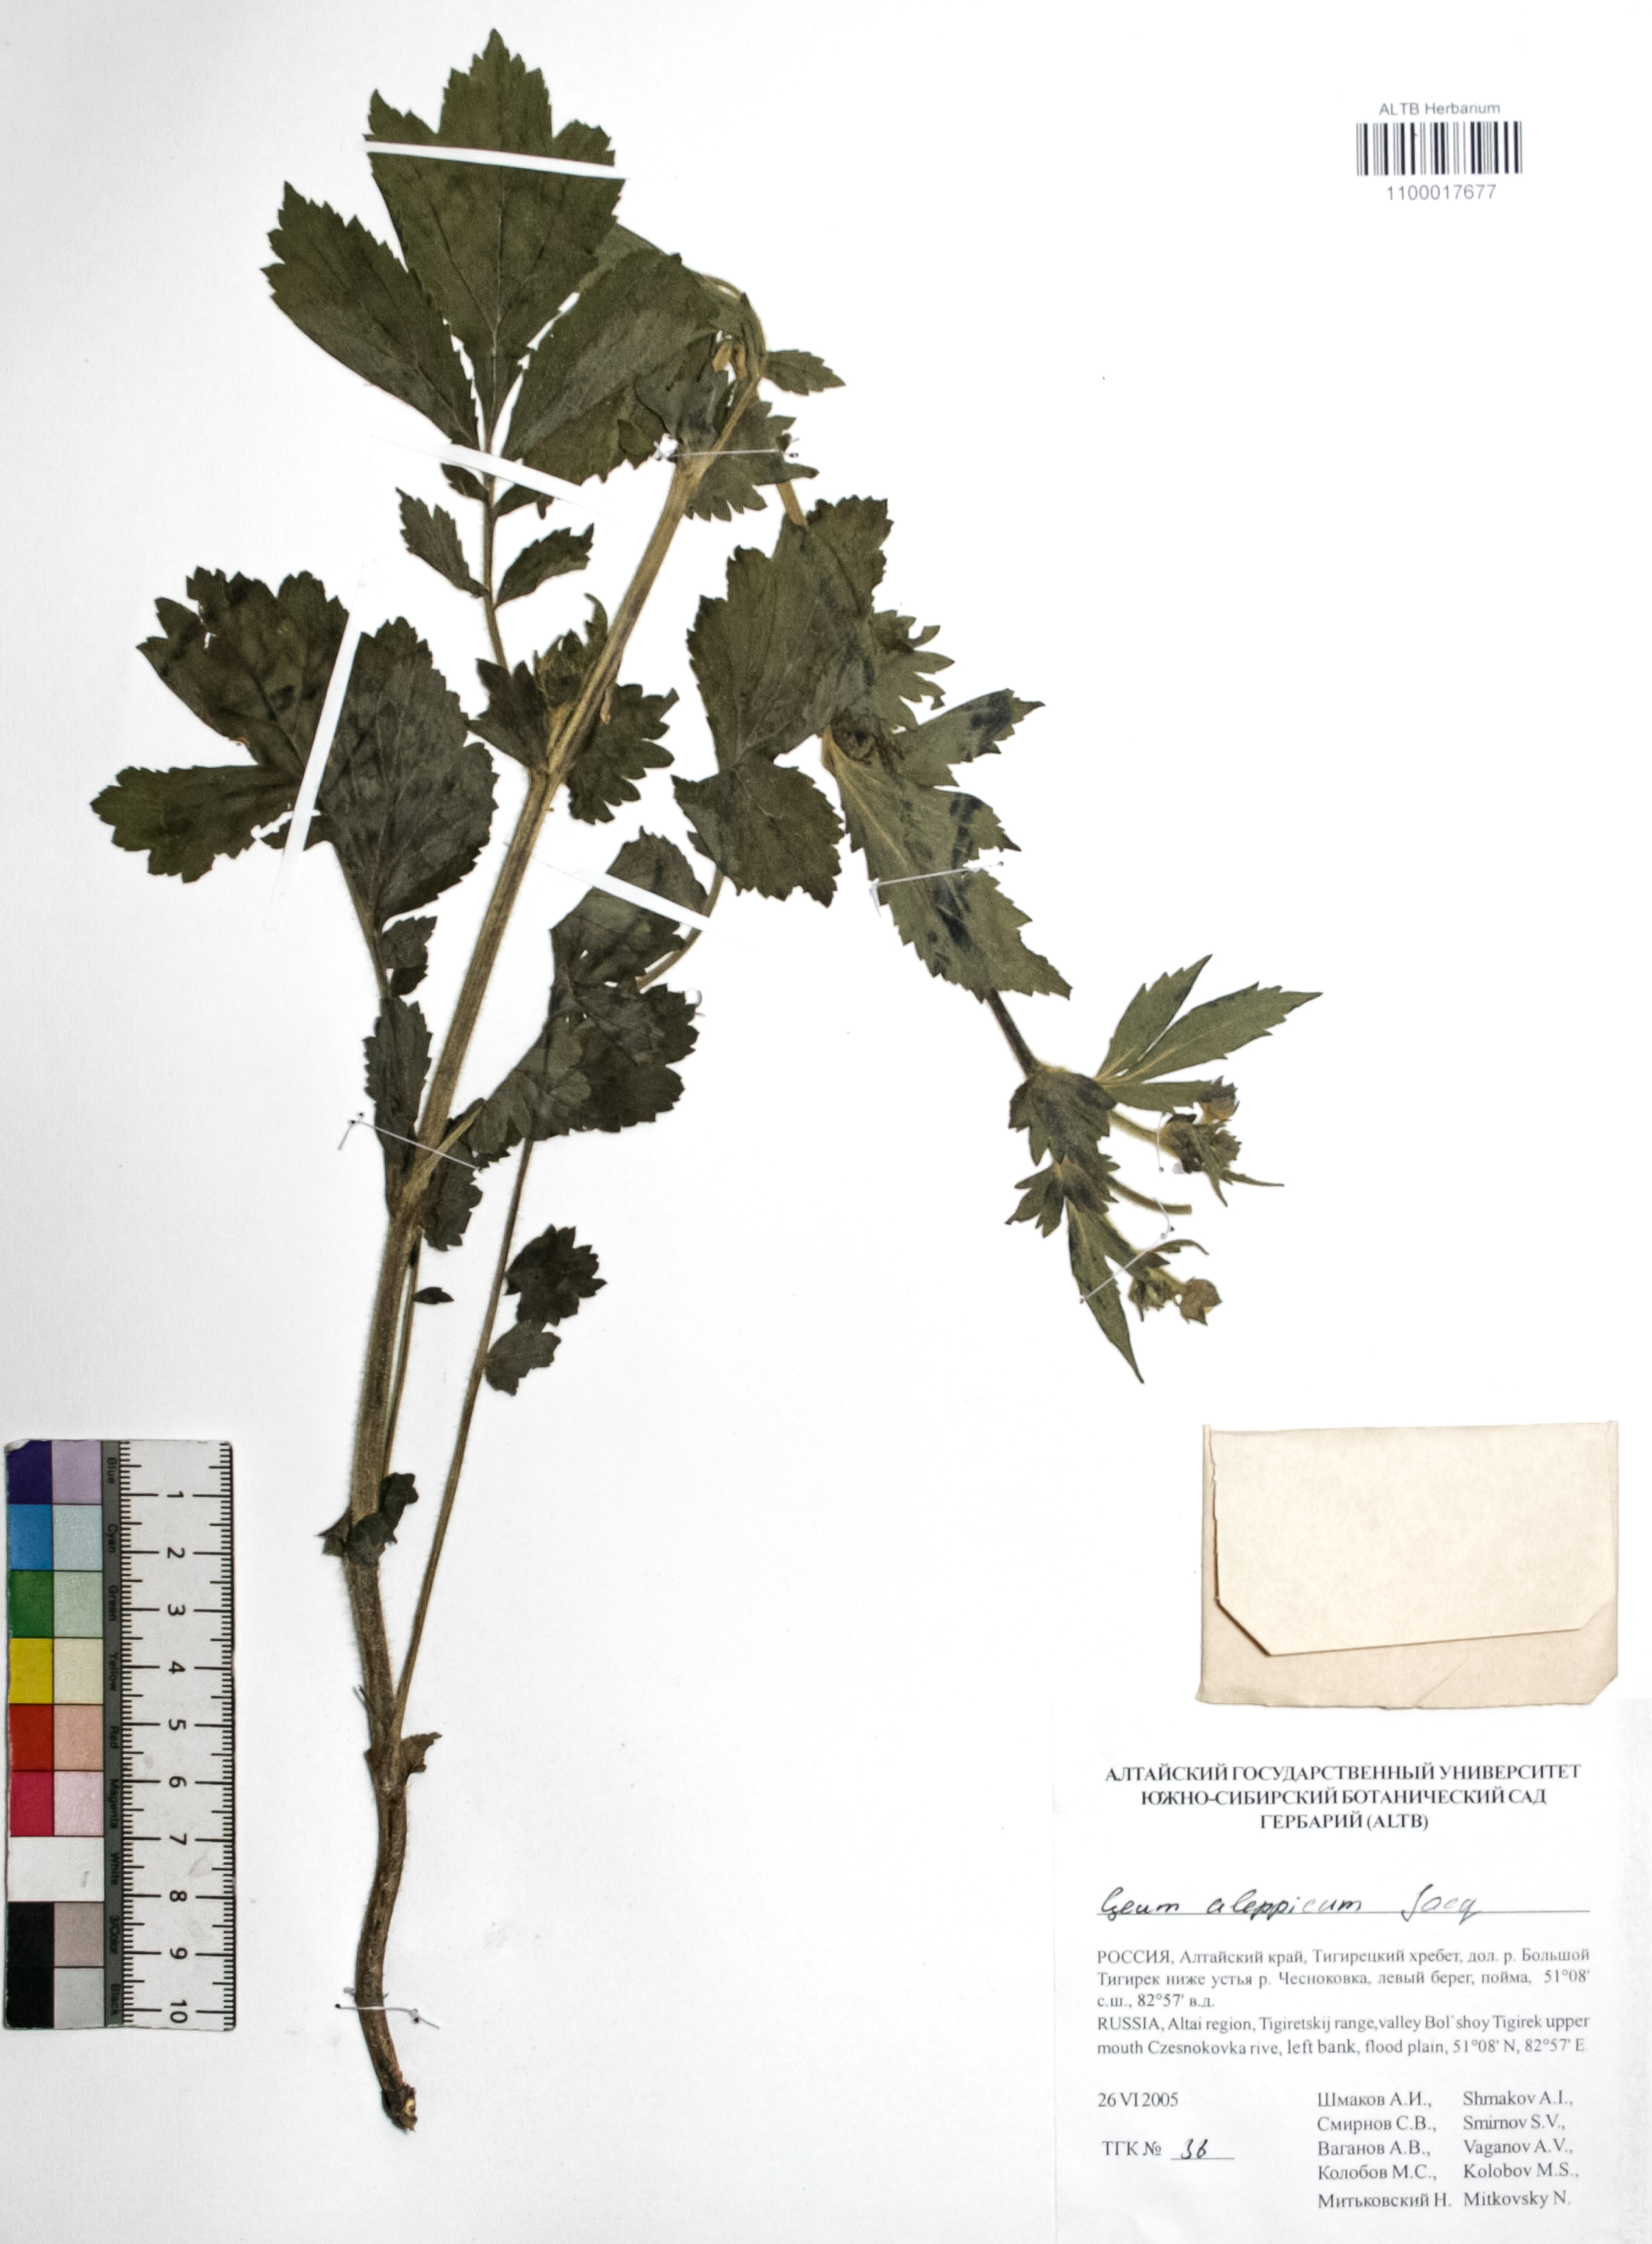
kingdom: Plantae
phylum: Tracheophyta
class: Magnoliopsida
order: Rosales
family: Rosaceae
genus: Geum
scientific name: Geum aleppicum
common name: Yellow avens
